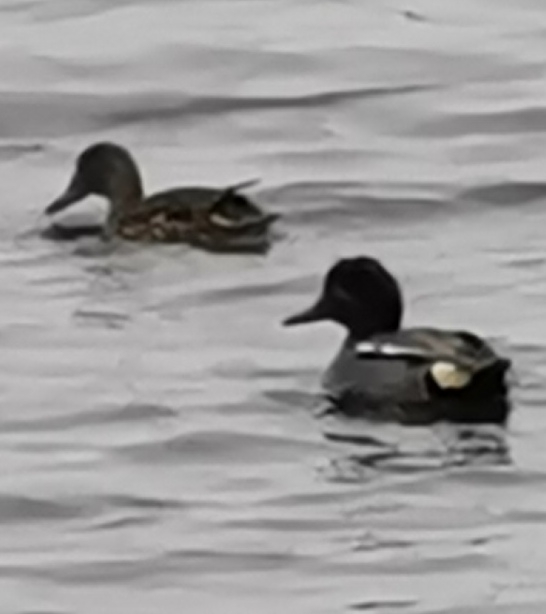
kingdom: Animalia
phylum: Chordata
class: Aves
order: Anseriformes
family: Anatidae
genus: Anas
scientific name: Anas crecca
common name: Krikand
